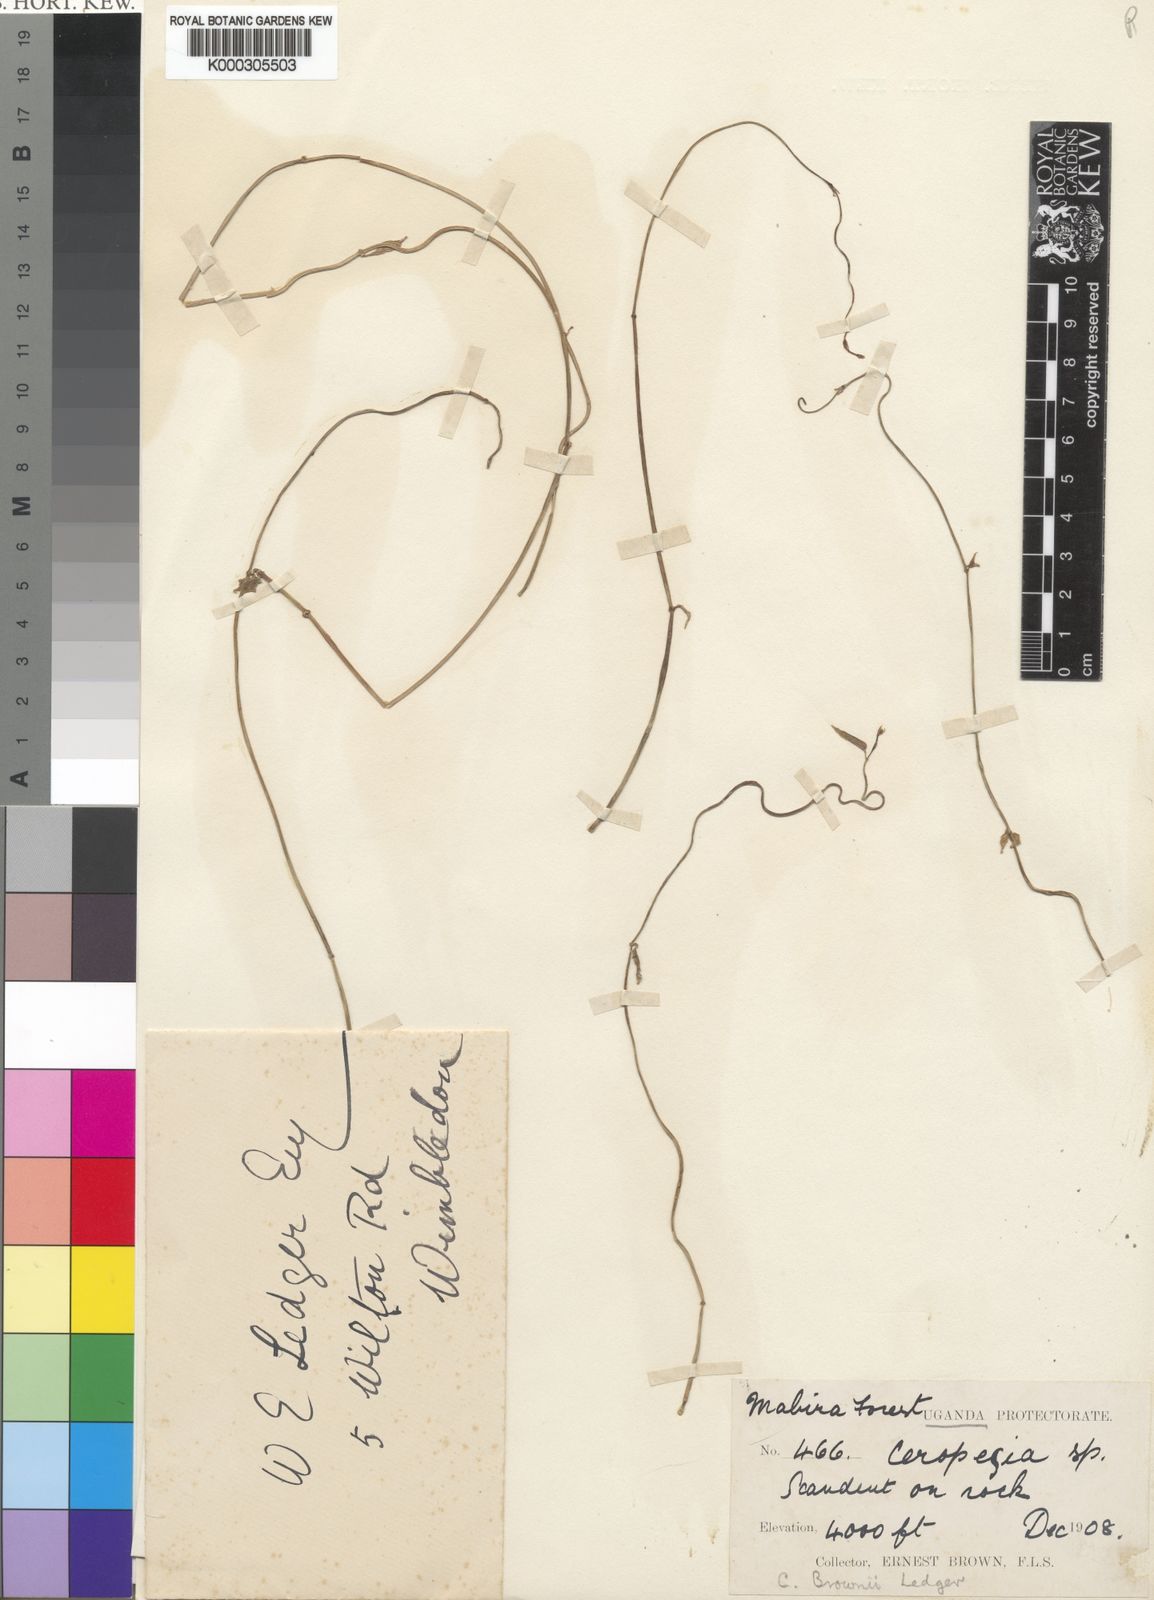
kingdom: Plantae
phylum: Tracheophyta
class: Magnoliopsida
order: Gentianales
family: Apocynaceae
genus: Ceropegia
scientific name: Ceropegia denticulata
